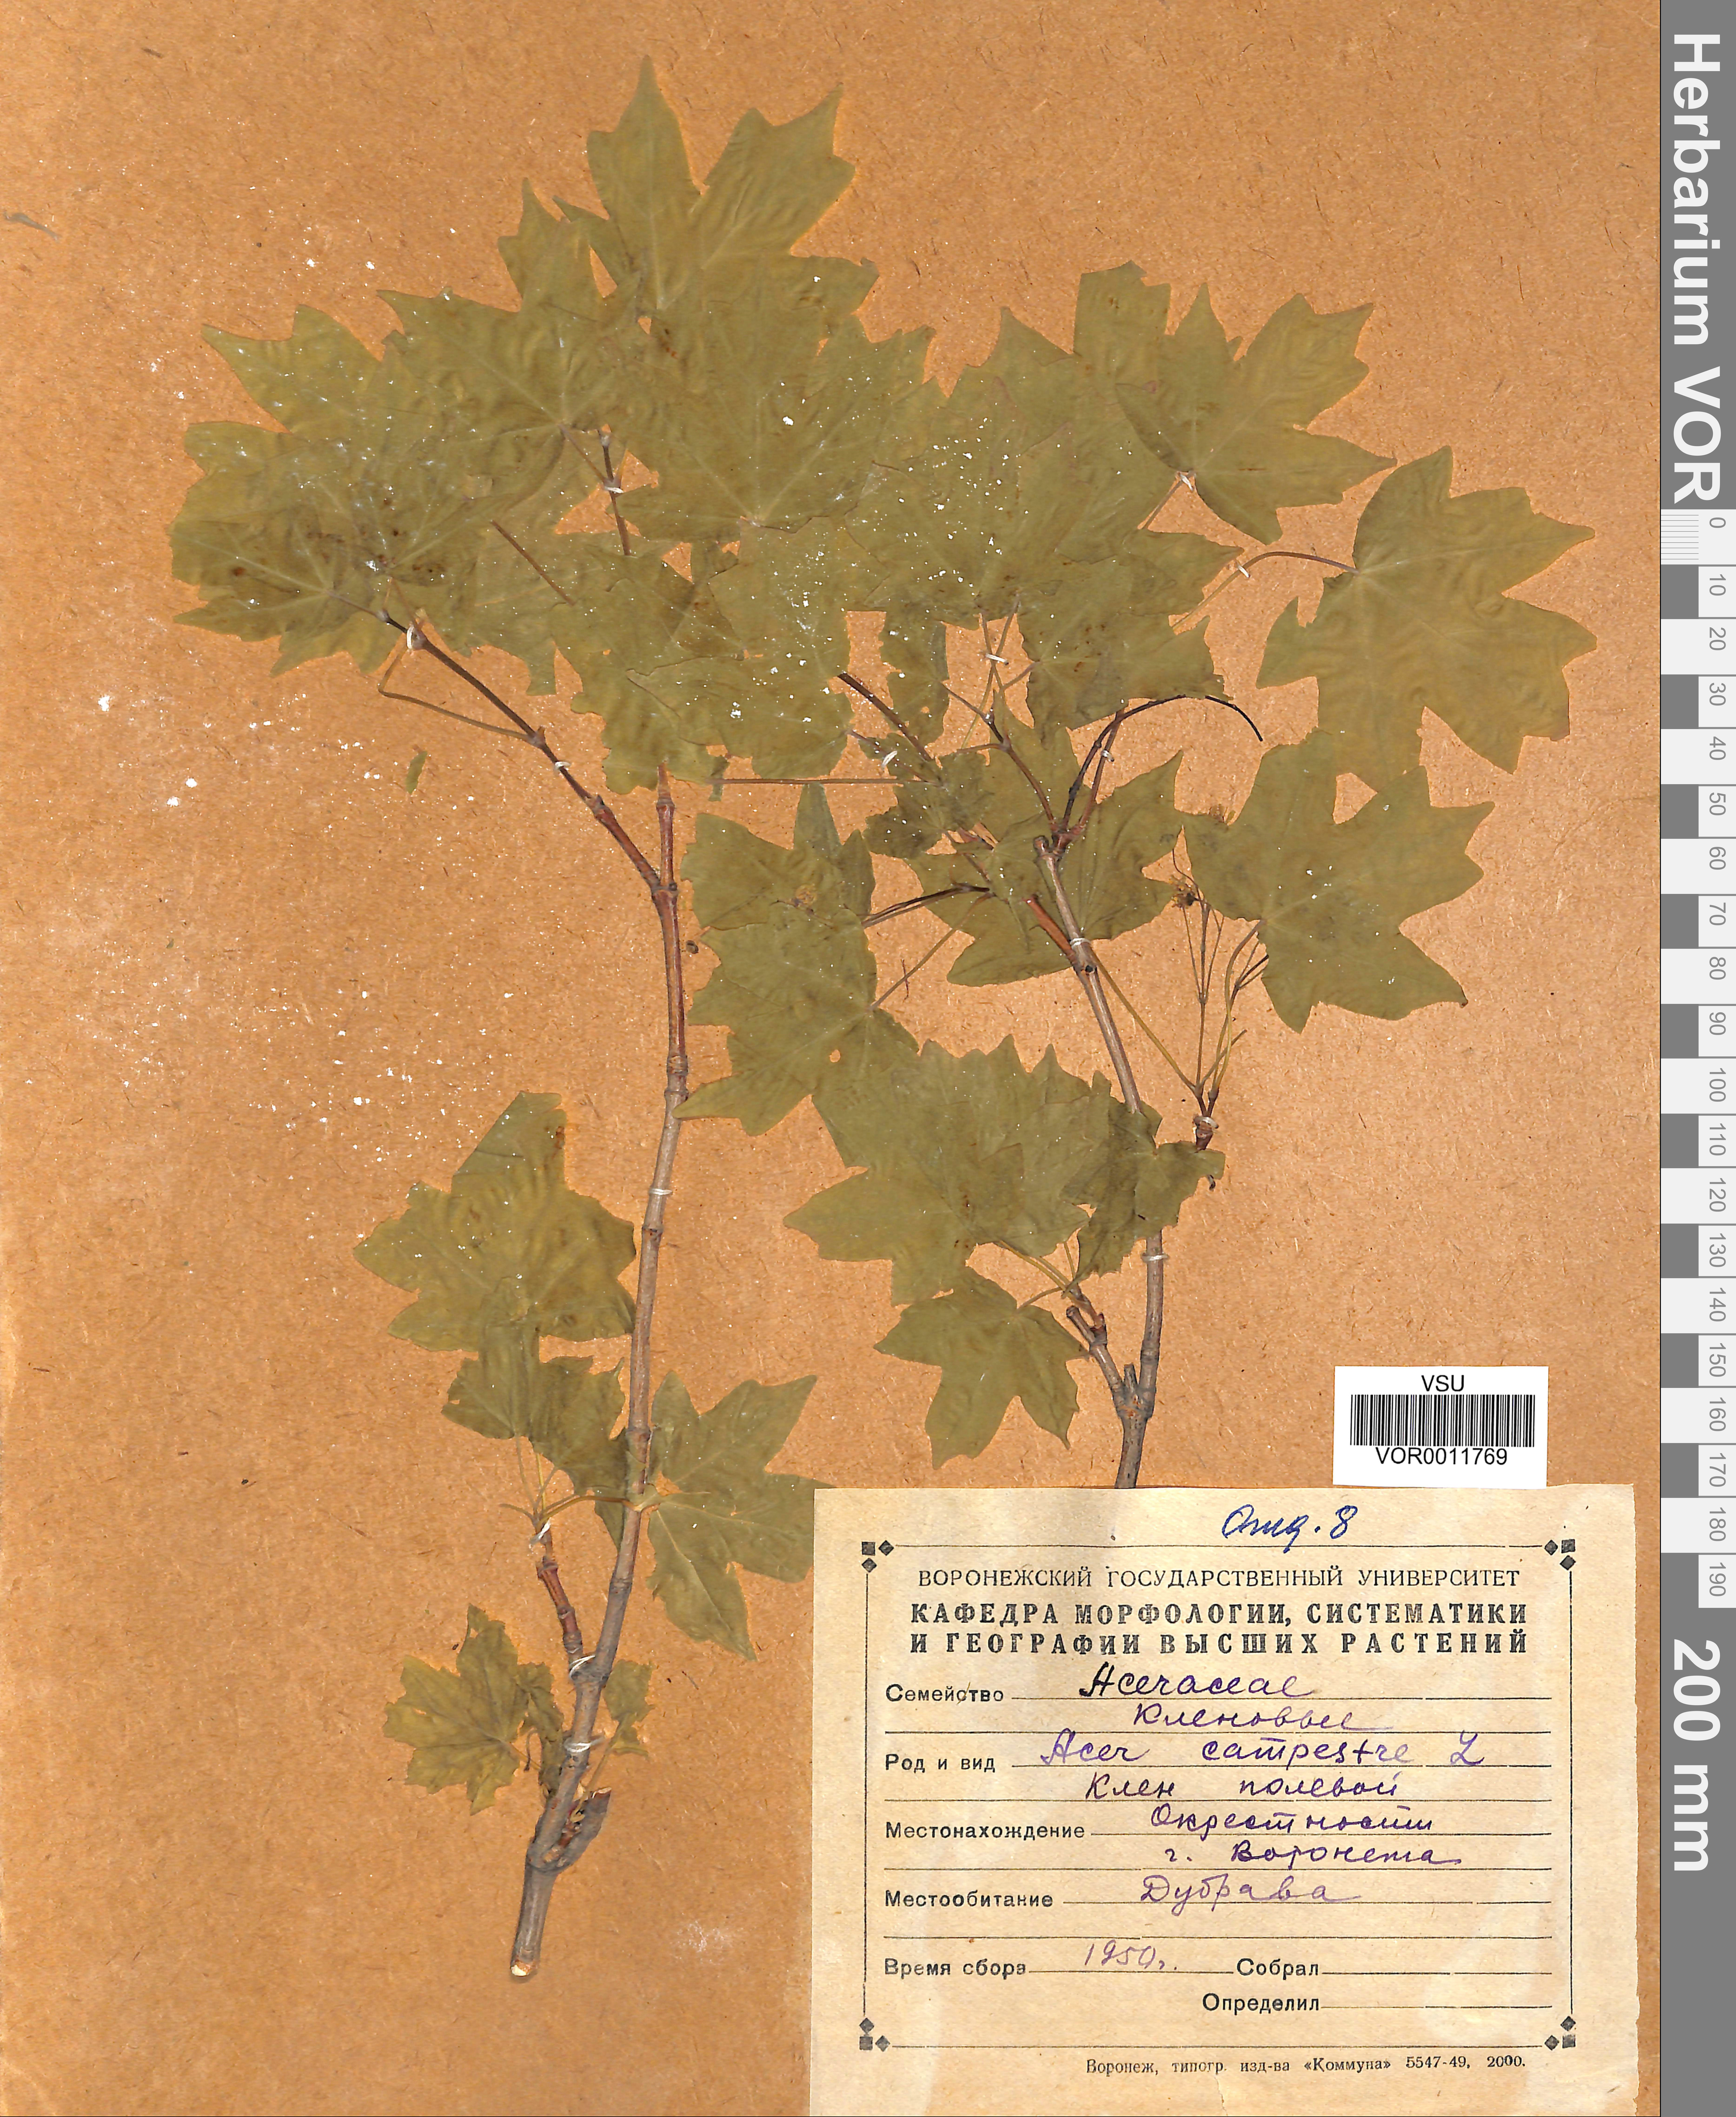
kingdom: Plantae
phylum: Tracheophyta
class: Magnoliopsida
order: Sapindales
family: Sapindaceae
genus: Acer
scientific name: Acer campestre
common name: Field maple
